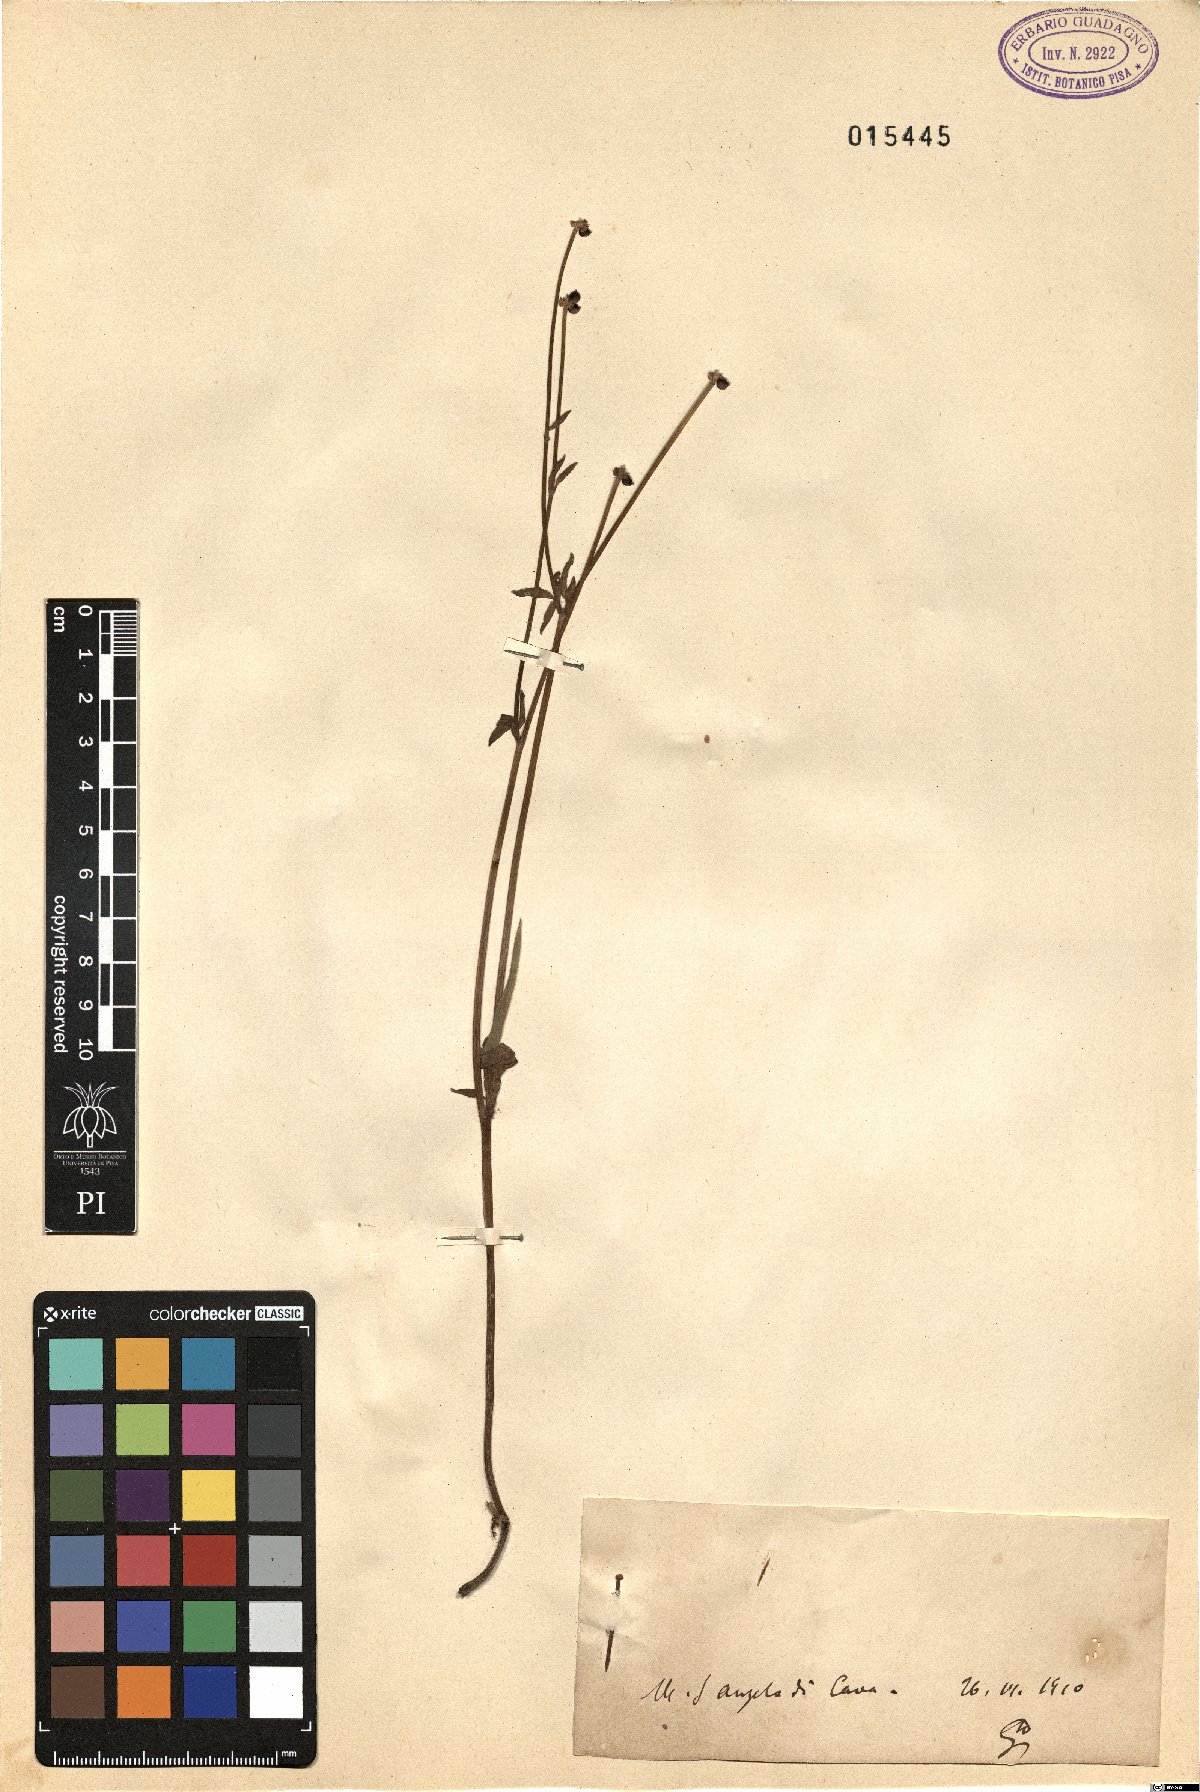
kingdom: Plantae
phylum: Tracheophyta
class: Magnoliopsida
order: Ranunculales
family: Ranunculaceae
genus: Ranunculus
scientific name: Ranunculus
